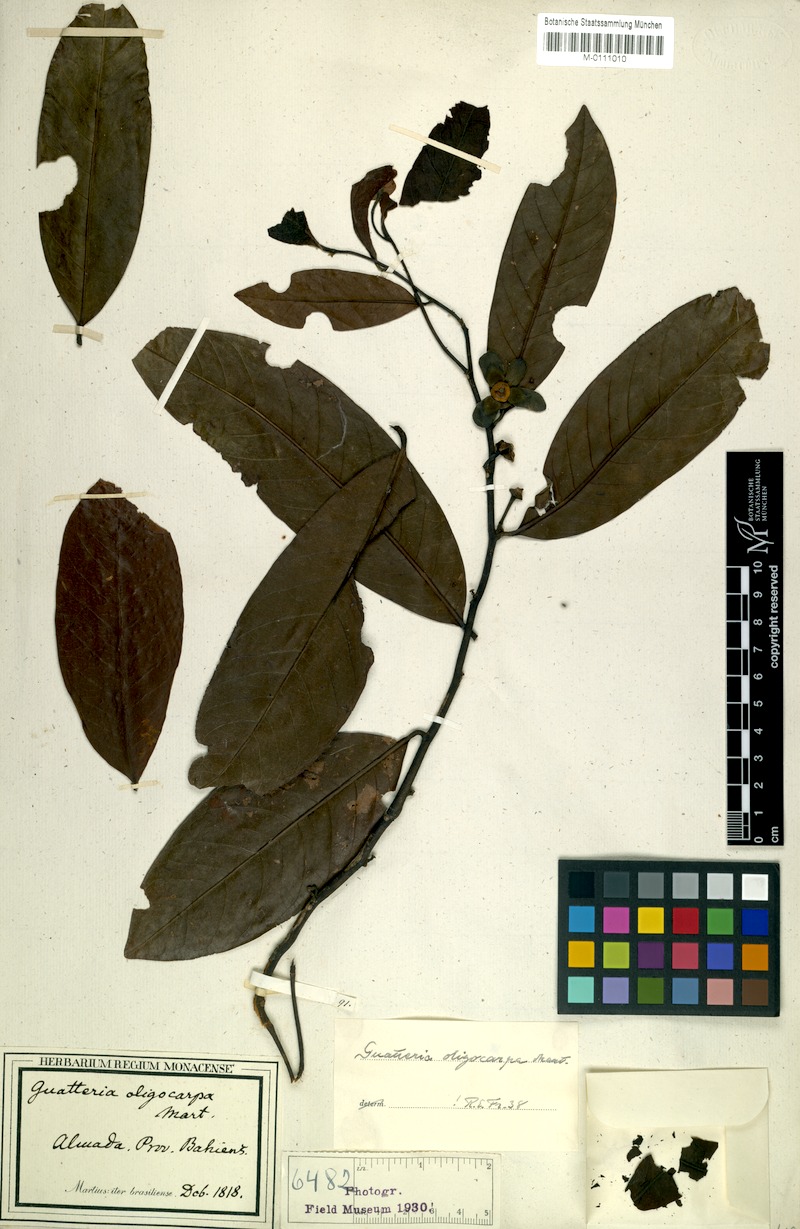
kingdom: Plantae
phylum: Tracheophyta
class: Magnoliopsida
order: Magnoliales
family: Annonaceae
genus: Guatteria
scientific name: Guatteria oligocarpa
